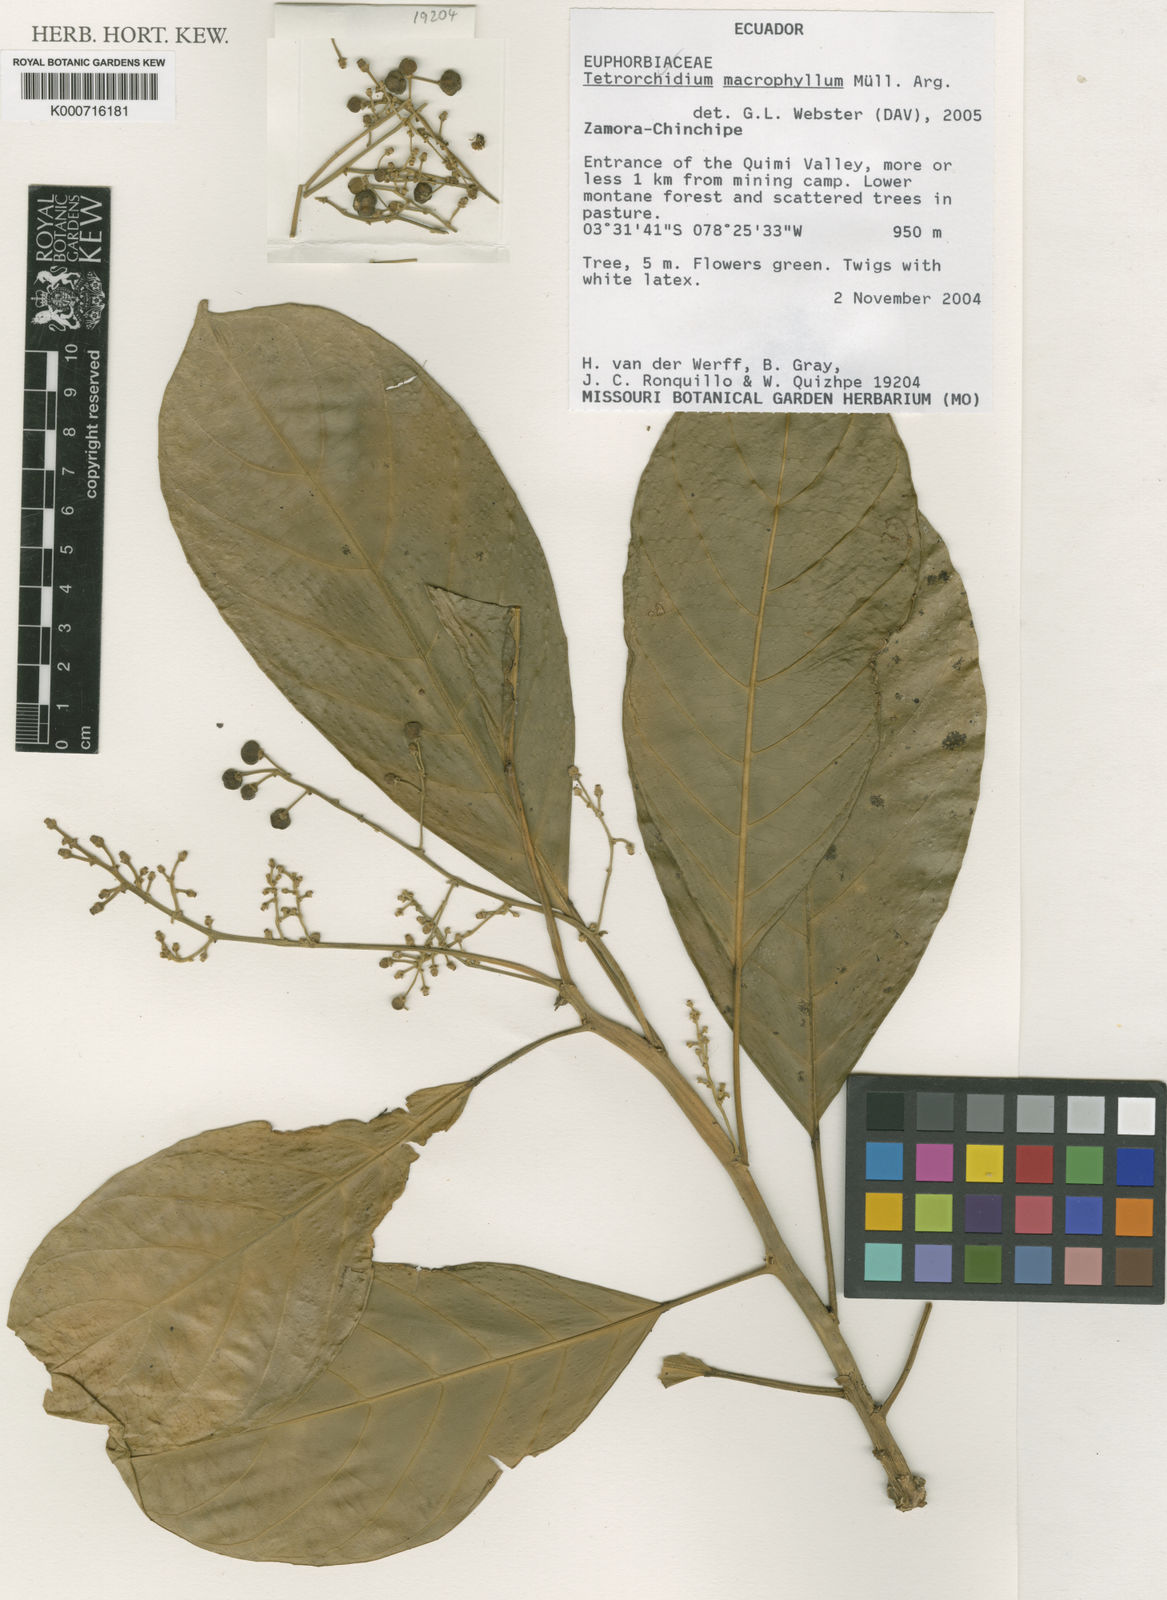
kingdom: Plantae
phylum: Tracheophyta
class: Magnoliopsida
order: Malpighiales
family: Euphorbiaceae
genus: Tetrorchidium
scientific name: Tetrorchidium
